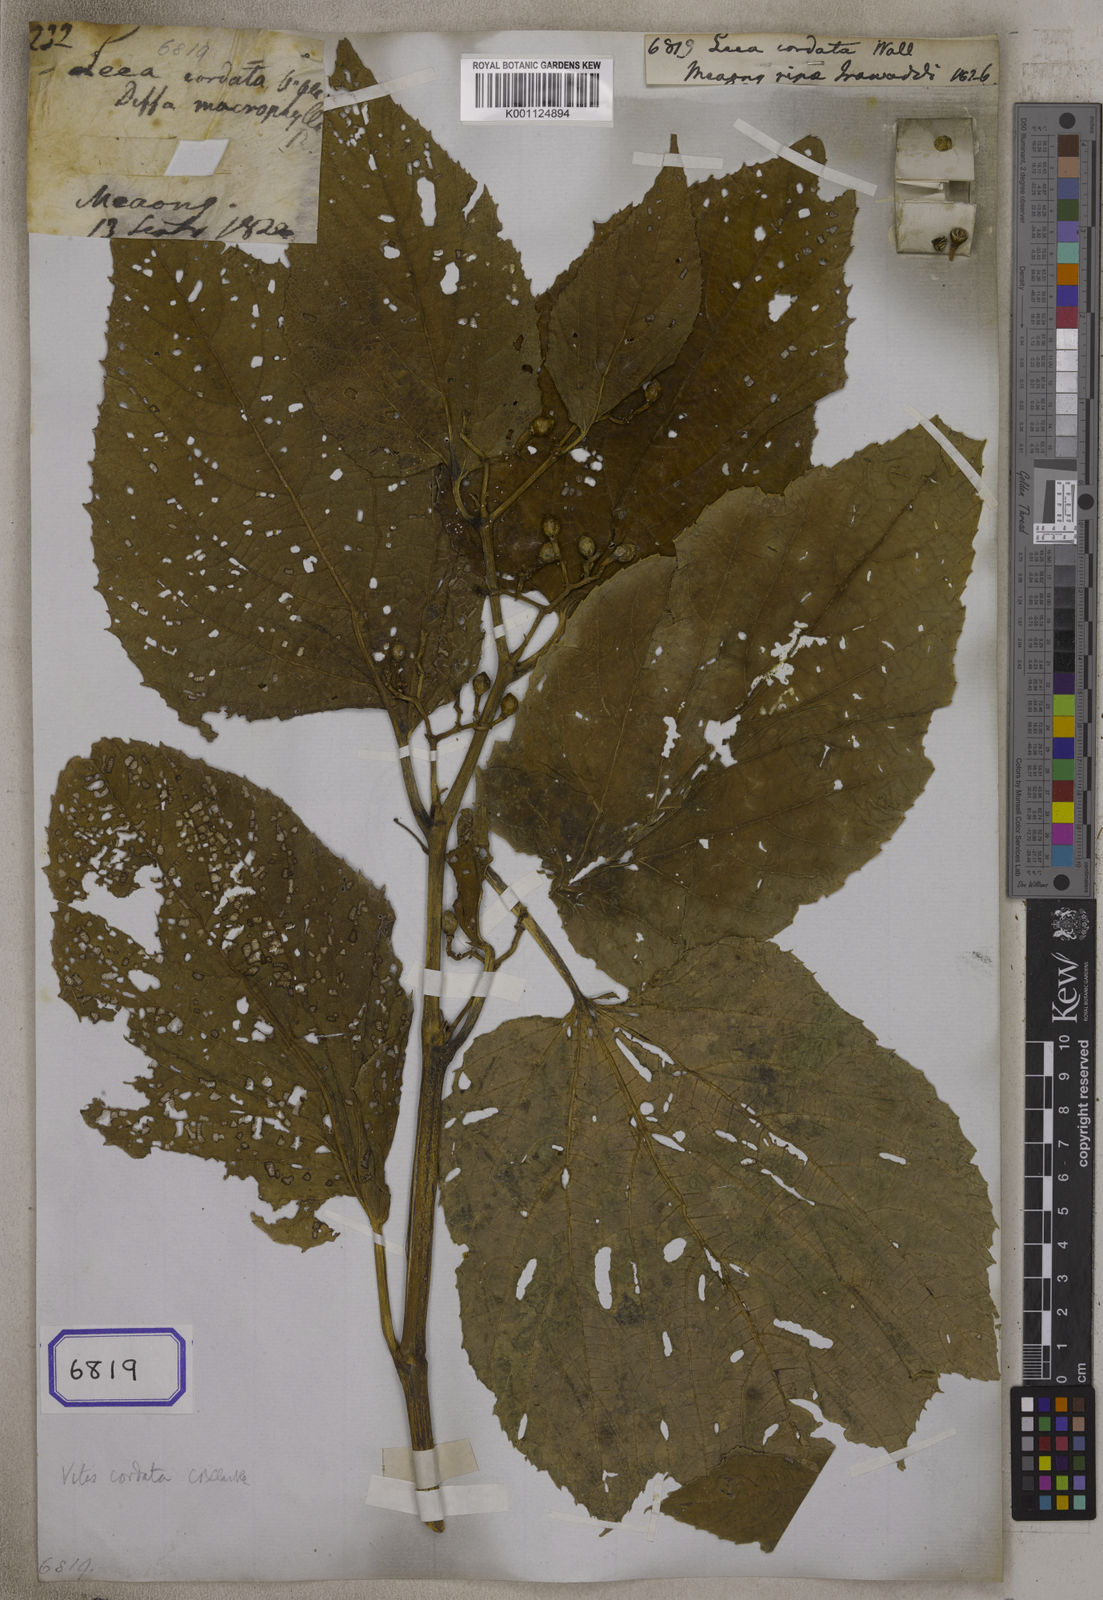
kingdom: Plantae
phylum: Tracheophyta
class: Magnoliopsida
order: Vitales
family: Vitaceae
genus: Leea
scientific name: Leea cordata
